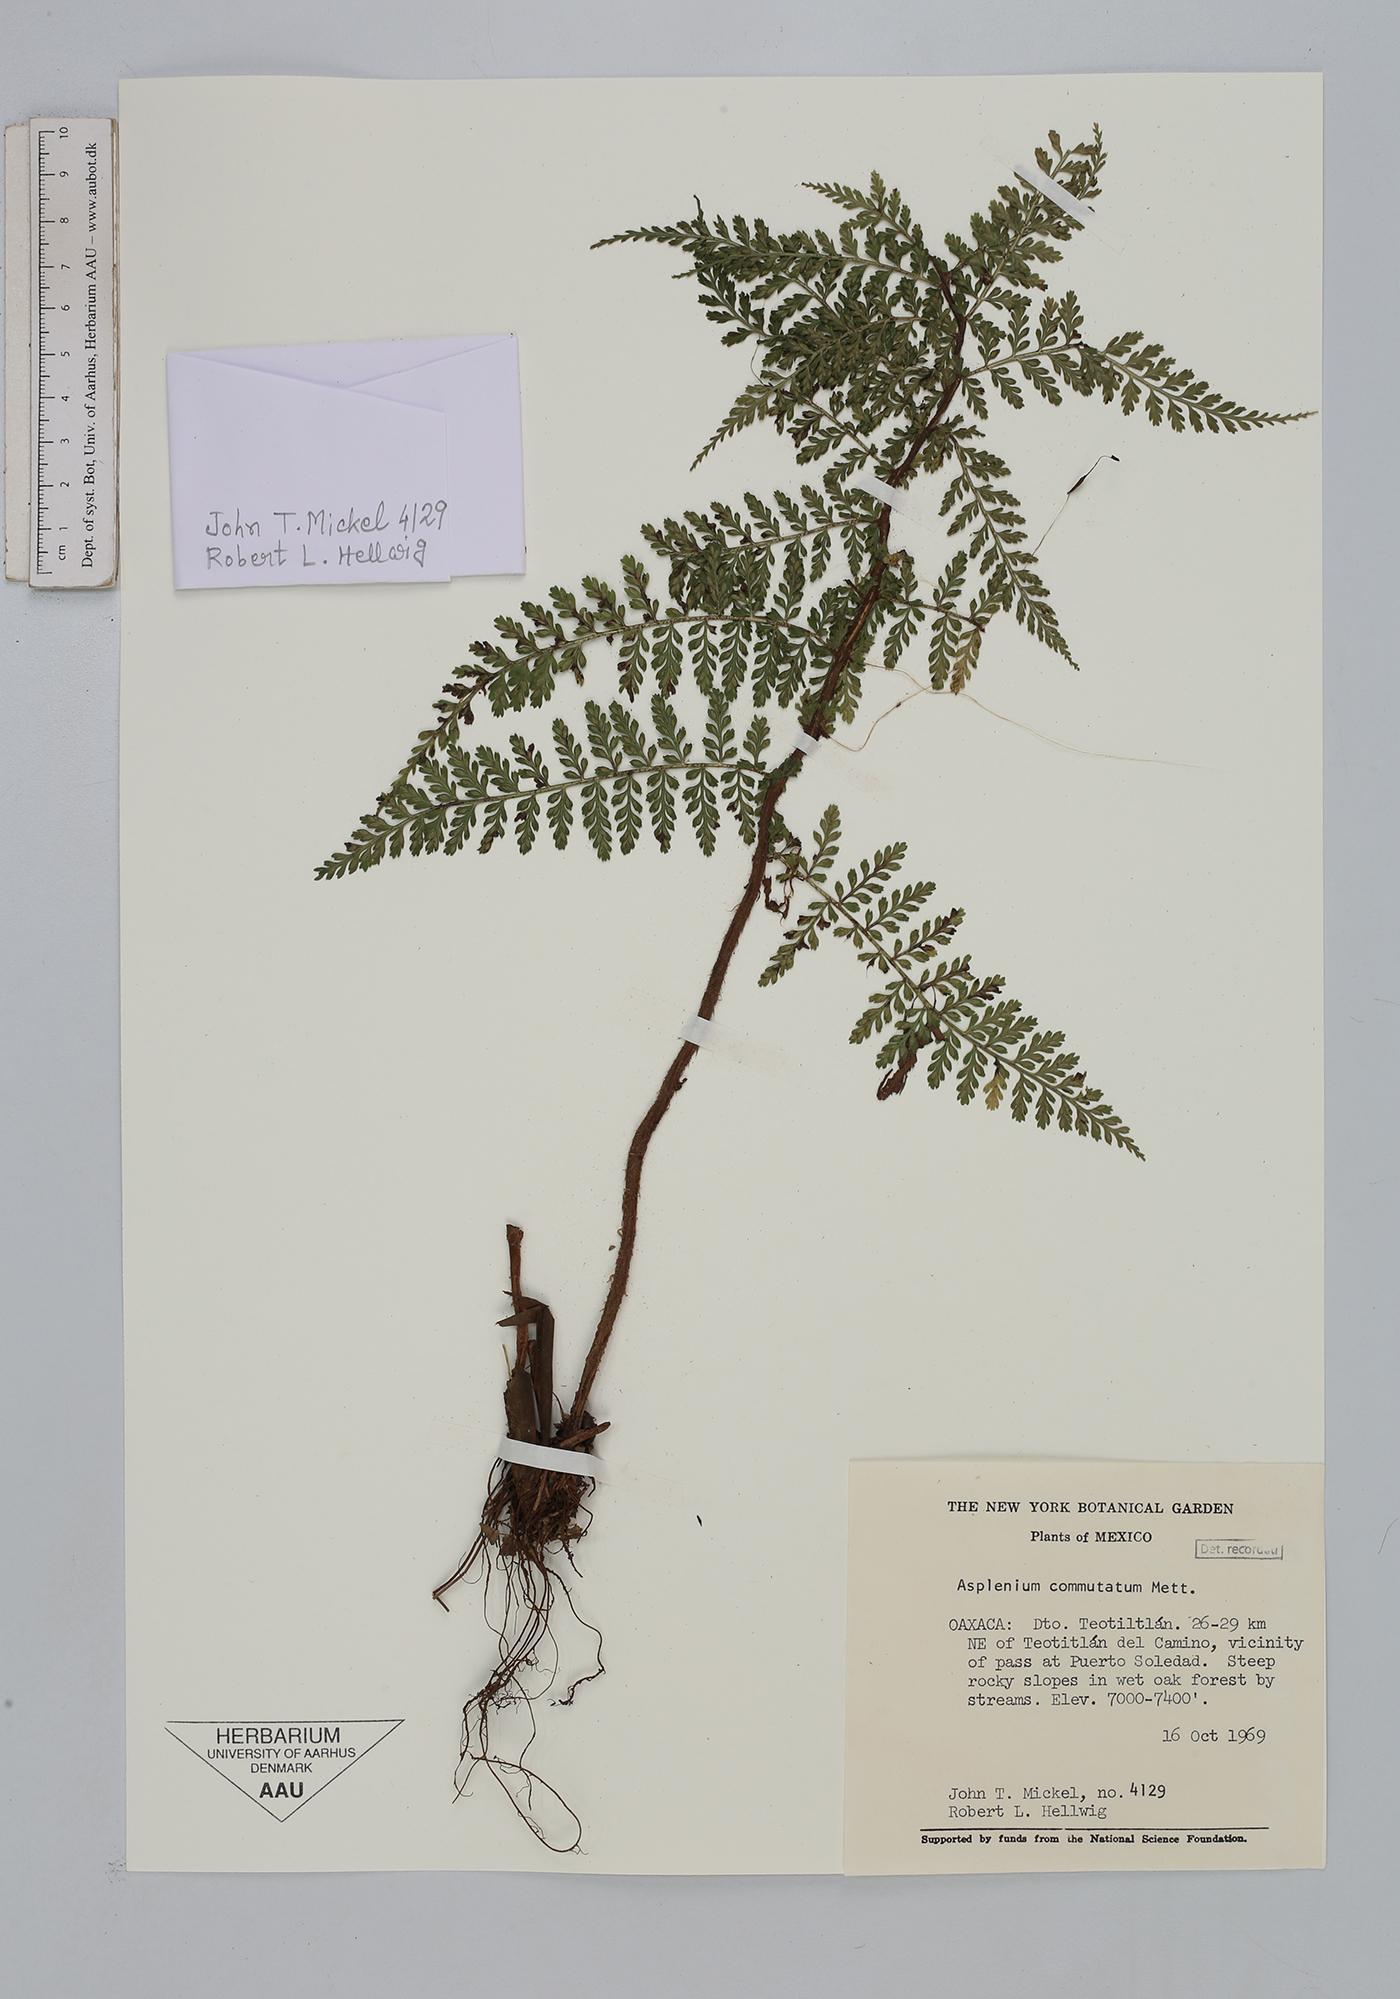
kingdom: Plantae
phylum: Tracheophyta
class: Polypodiopsida
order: Polypodiales
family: Aspleniaceae
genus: Asplenium
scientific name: Asplenium blepharophorum
